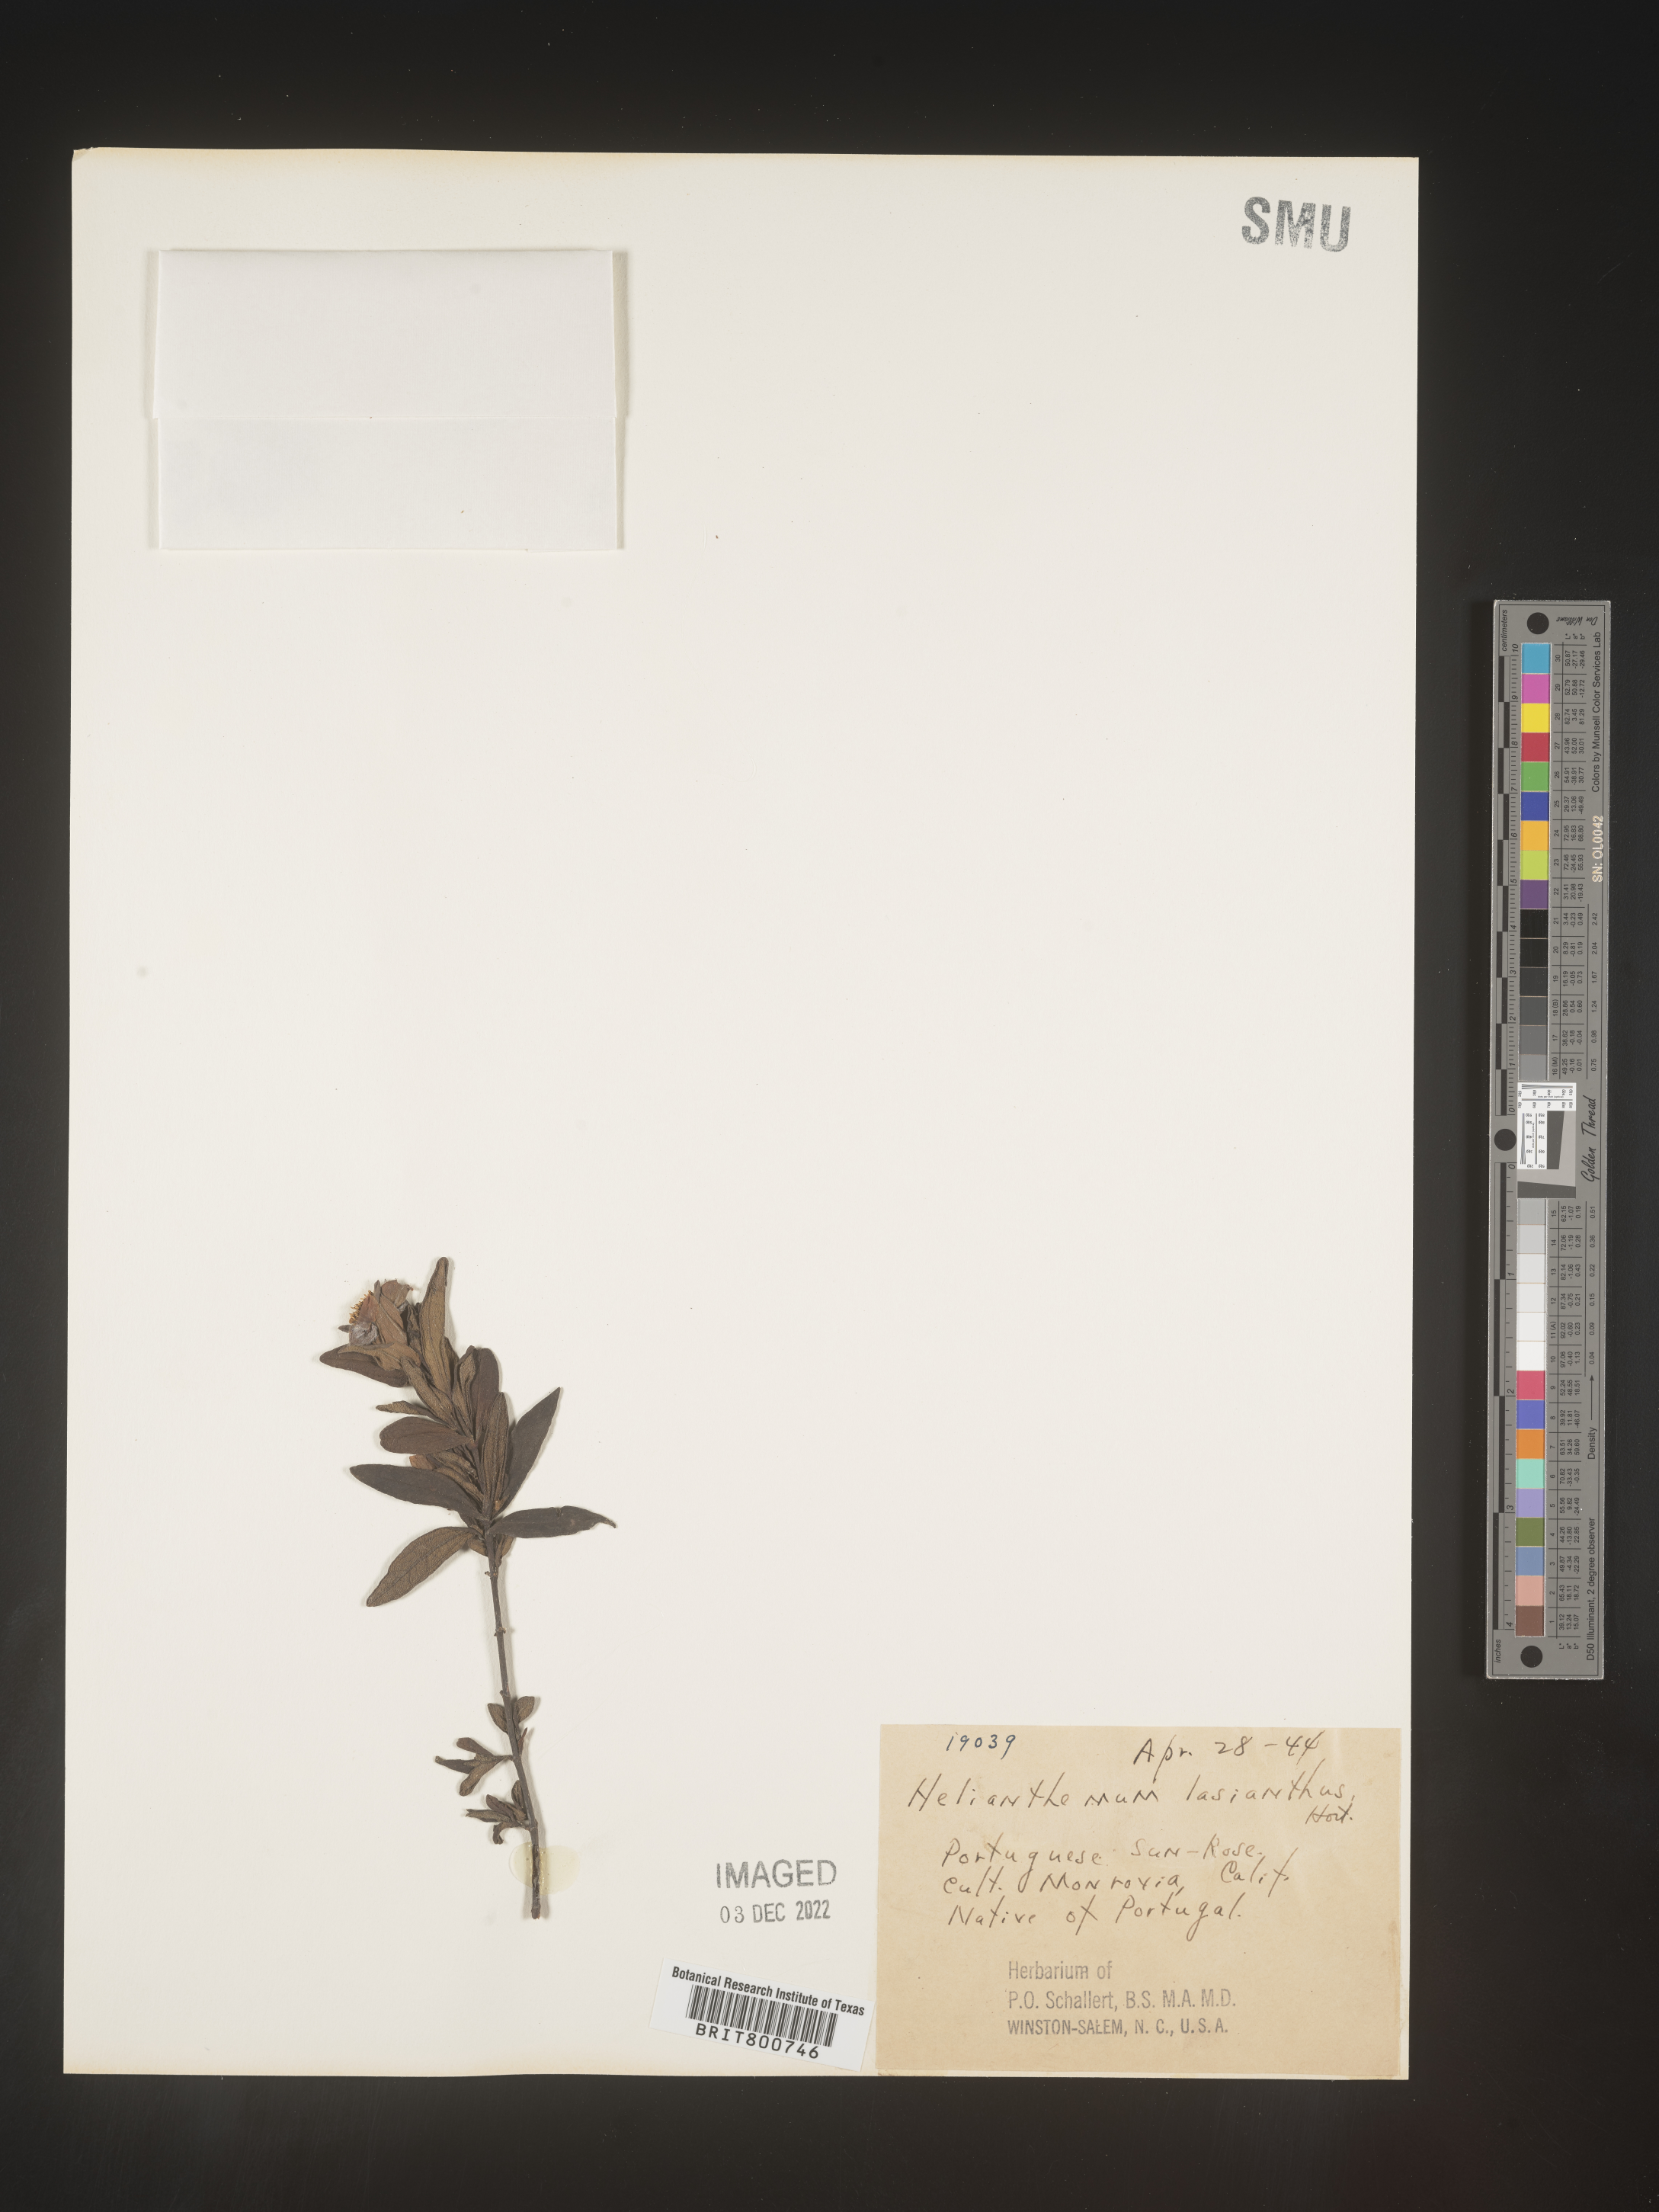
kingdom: Plantae
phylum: Tracheophyta
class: Magnoliopsida
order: Malvales
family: Cistaceae
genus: Helianthemum
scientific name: Helianthemum
